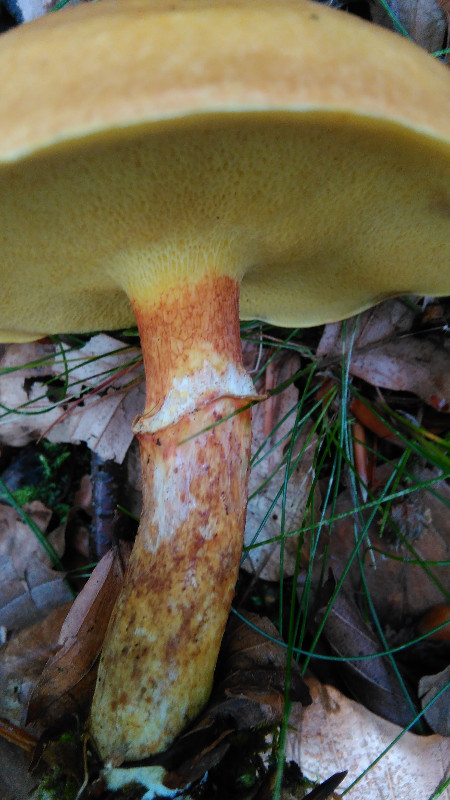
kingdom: Fungi
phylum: Basidiomycota
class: Agaricomycetes
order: Boletales
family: Suillaceae
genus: Suillus
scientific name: Suillus grevillei
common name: lærke-slimrørhat
